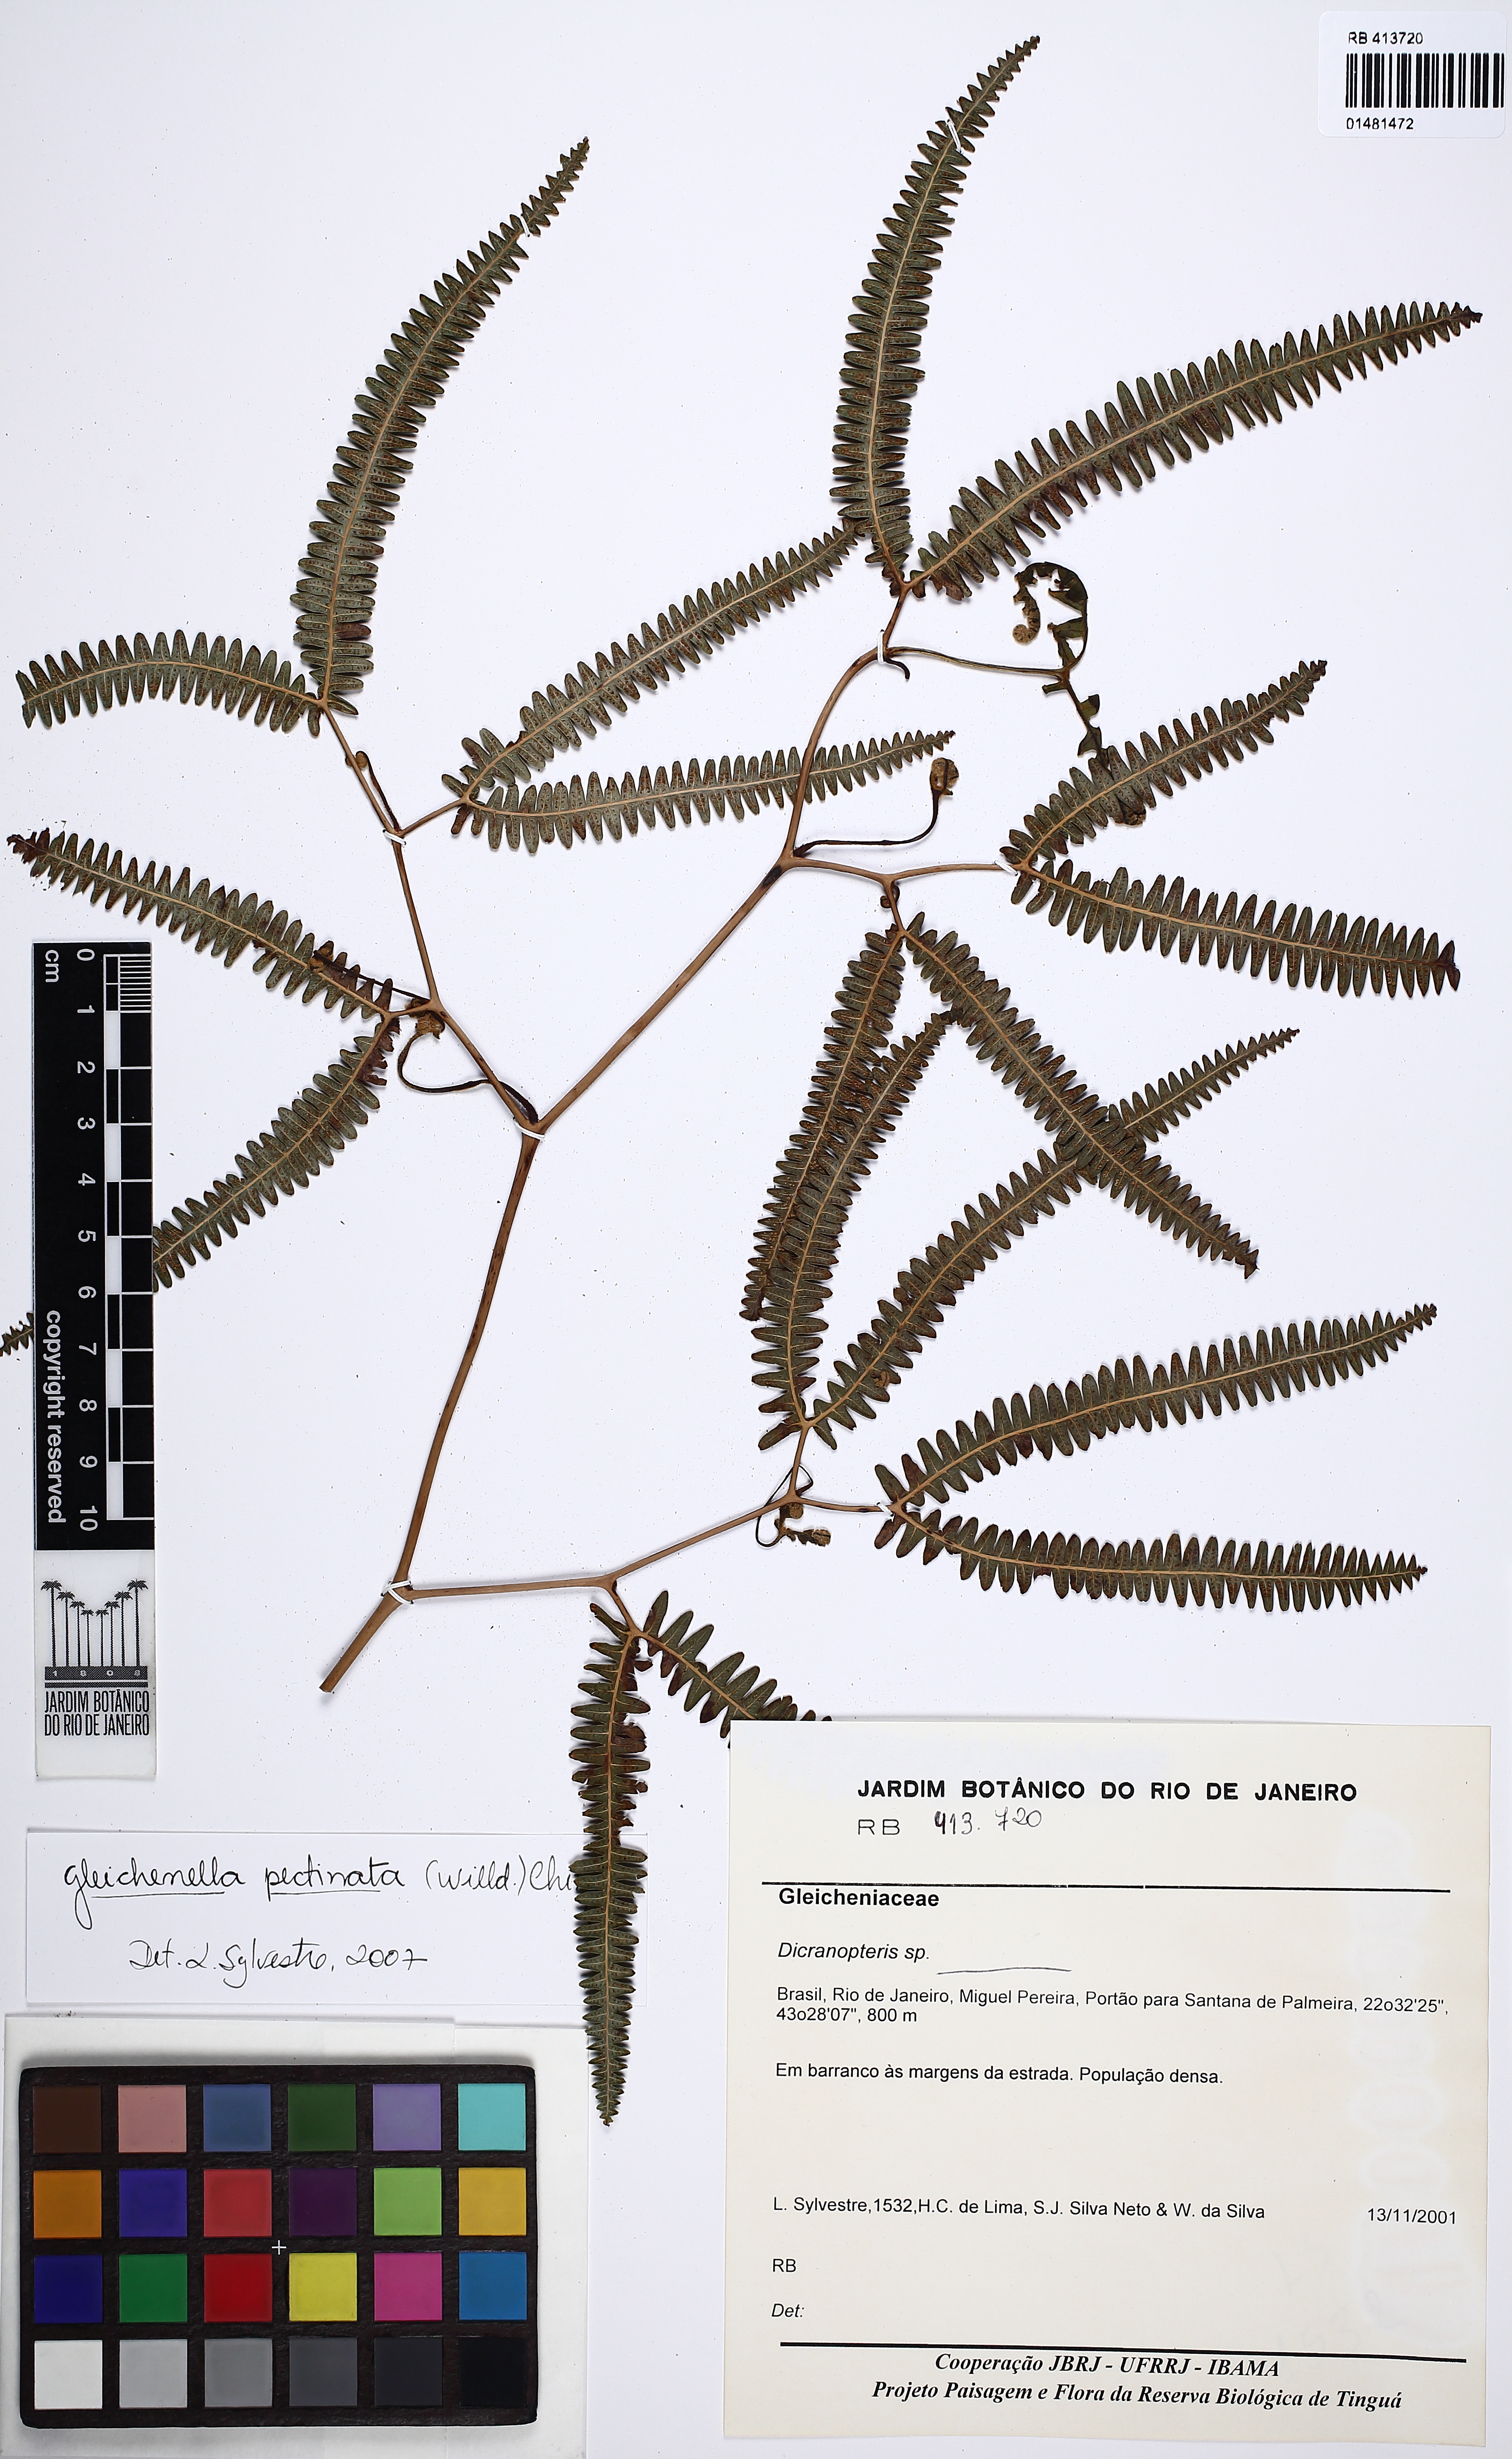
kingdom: Plantae
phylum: Tracheophyta
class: Polypodiopsida
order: Gleicheniales
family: Gleicheniaceae
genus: Gleichenella
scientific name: Gleichenella pectinata
